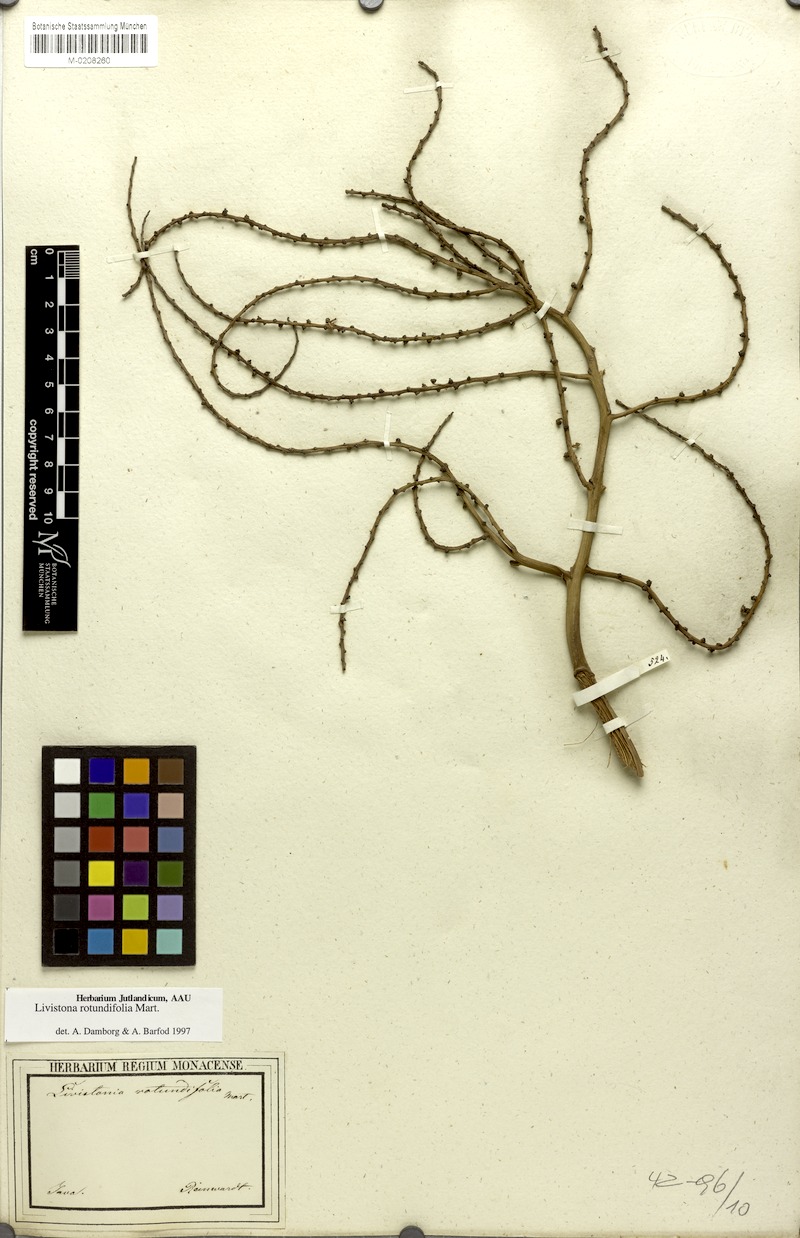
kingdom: Plantae
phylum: Tracheophyta
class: Liliopsida
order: Arecales
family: Arecaceae
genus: Saribus
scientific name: Saribus rotundifolius
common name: Palm
